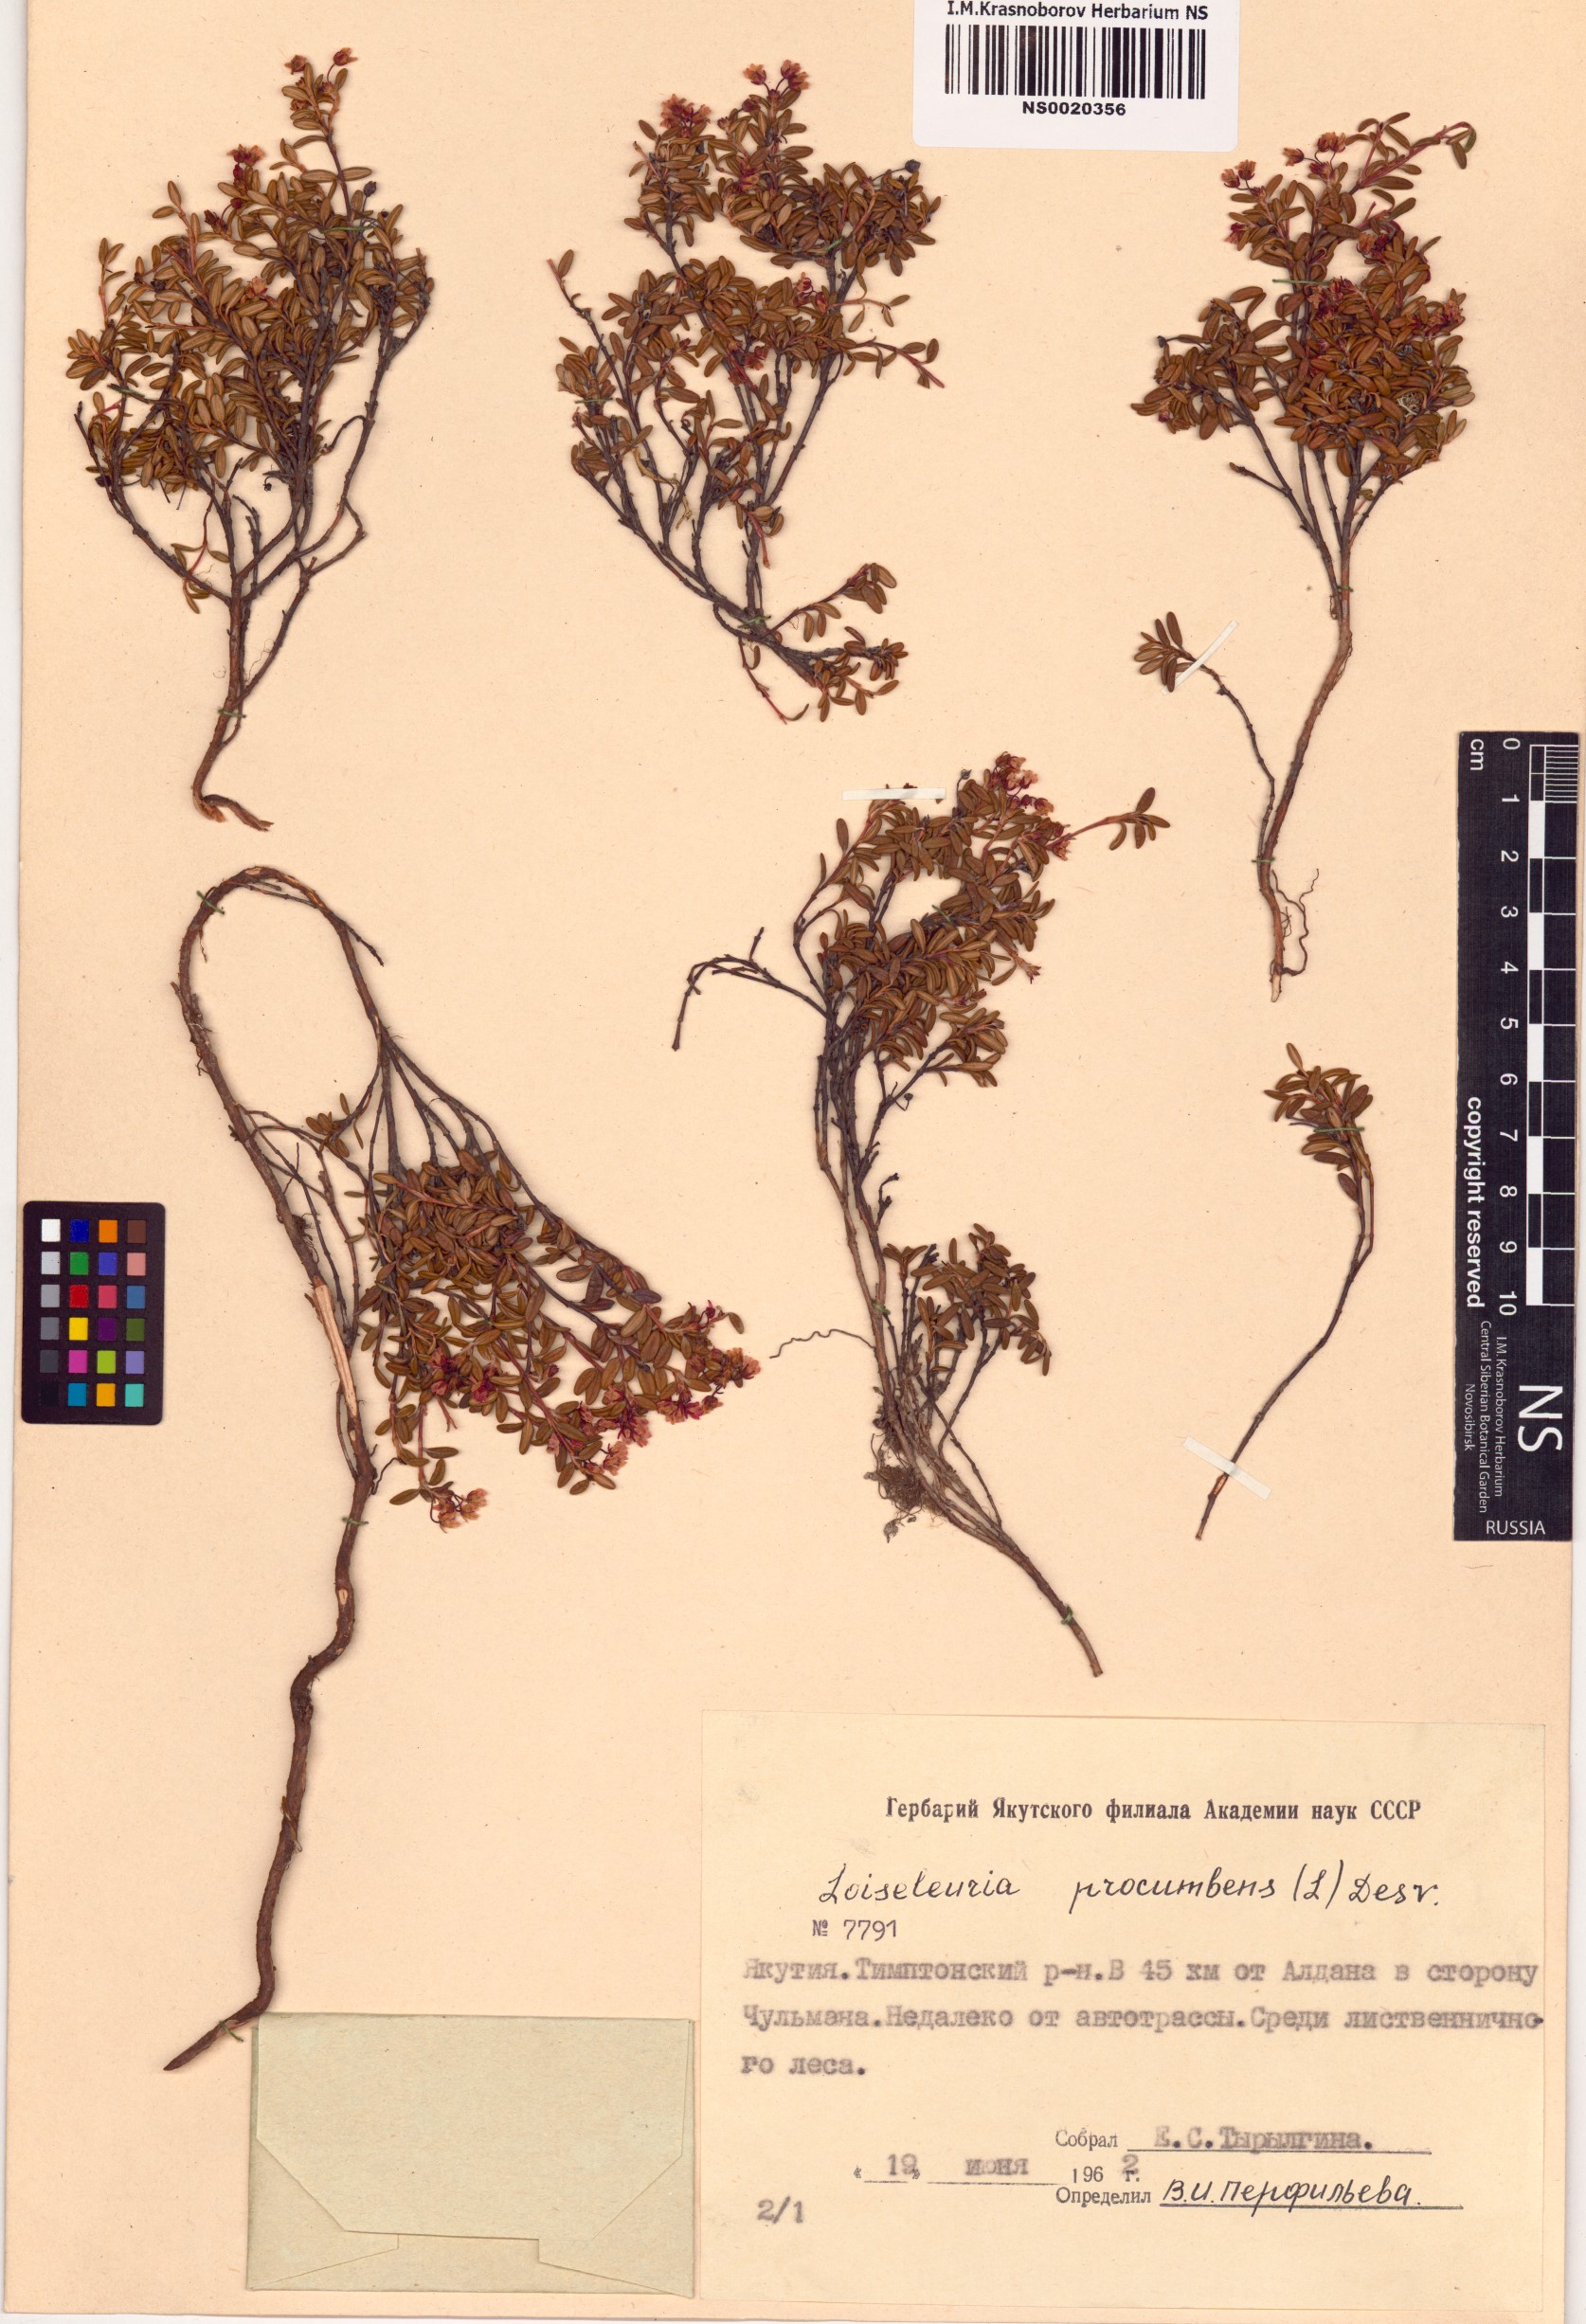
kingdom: Plantae
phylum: Tracheophyta
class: Magnoliopsida
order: Ericales
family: Ericaceae
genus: Kalmia
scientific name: Kalmia procumbens
